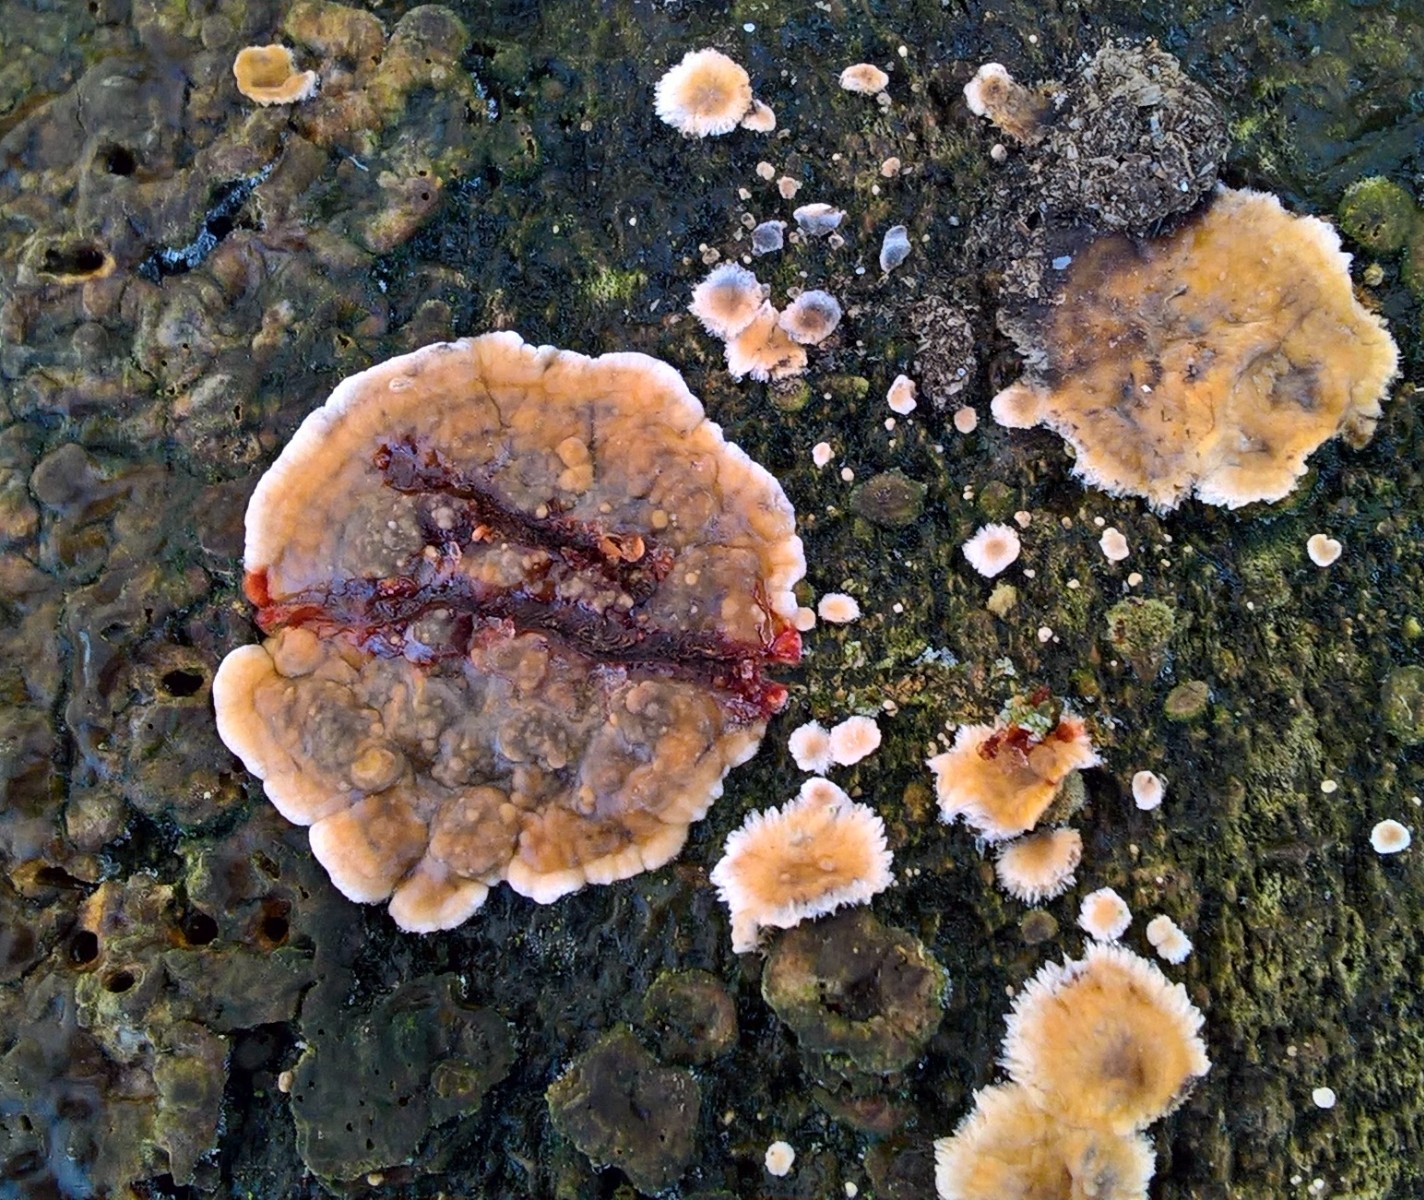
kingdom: Fungi
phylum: Basidiomycota
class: Agaricomycetes
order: Russulales
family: Stereaceae
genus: Stereum
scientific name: Stereum rugosum
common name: rynket lædersvamp
